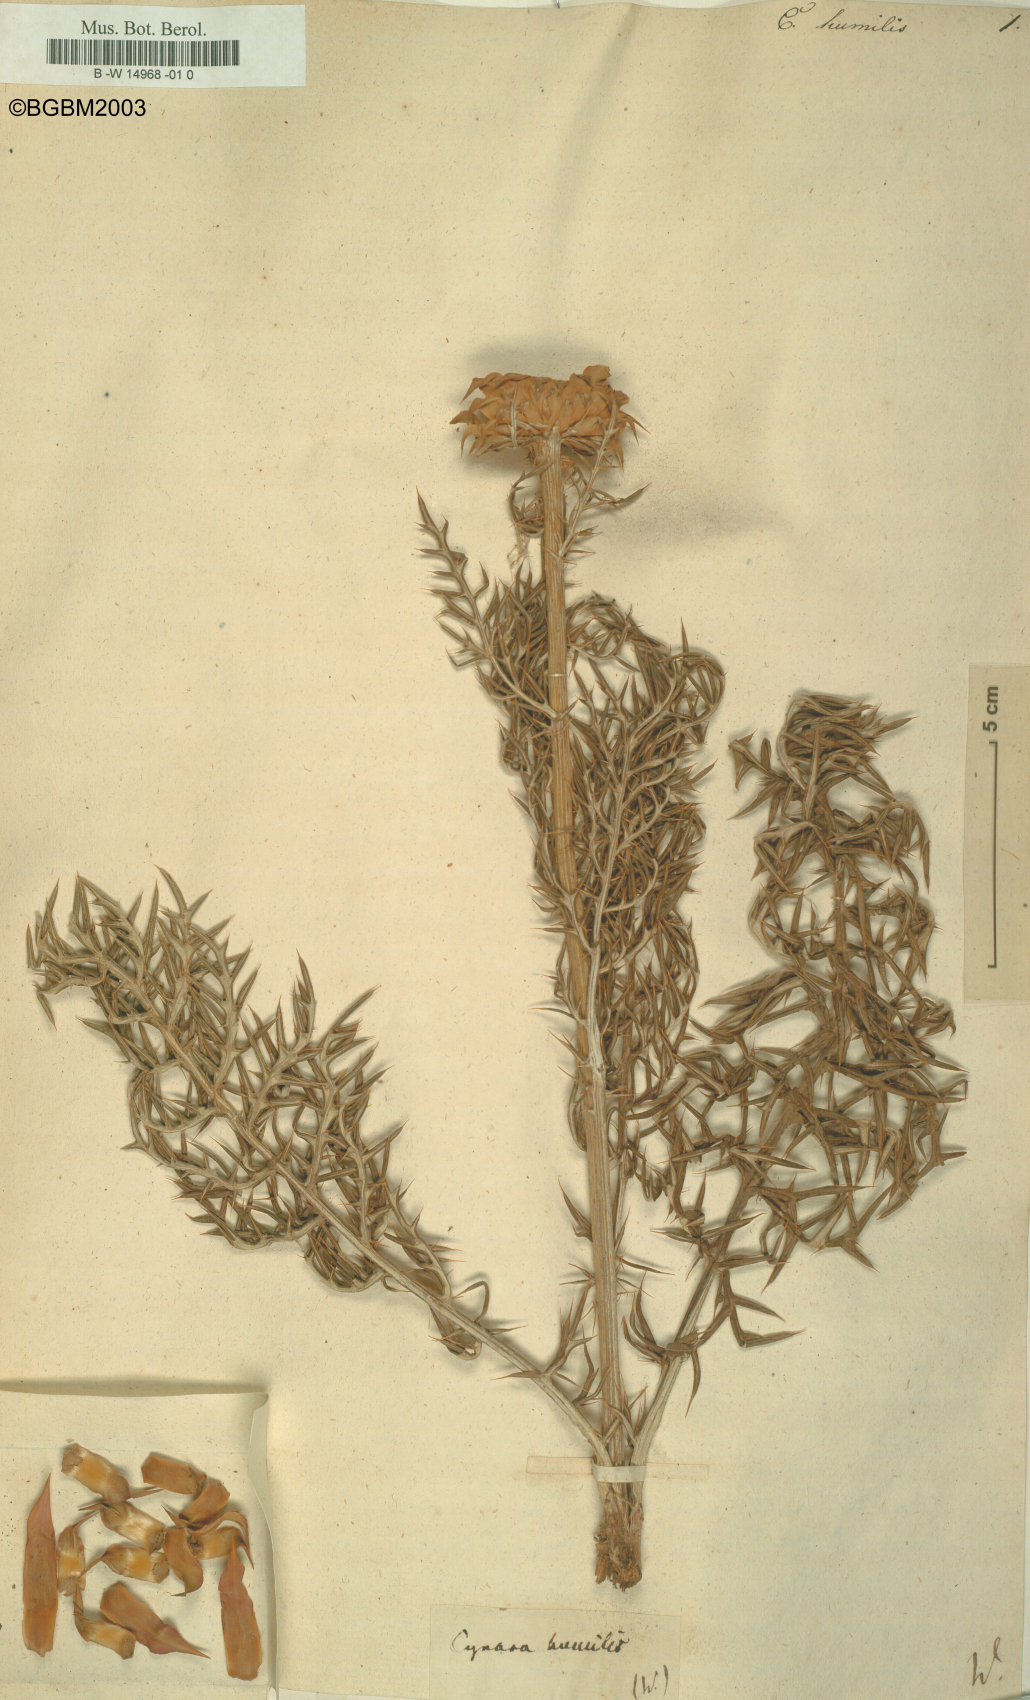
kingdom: Plantae
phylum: Tracheophyta
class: Magnoliopsida
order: Asterales
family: Asteraceae
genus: Cynara
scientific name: Cynara humilis
